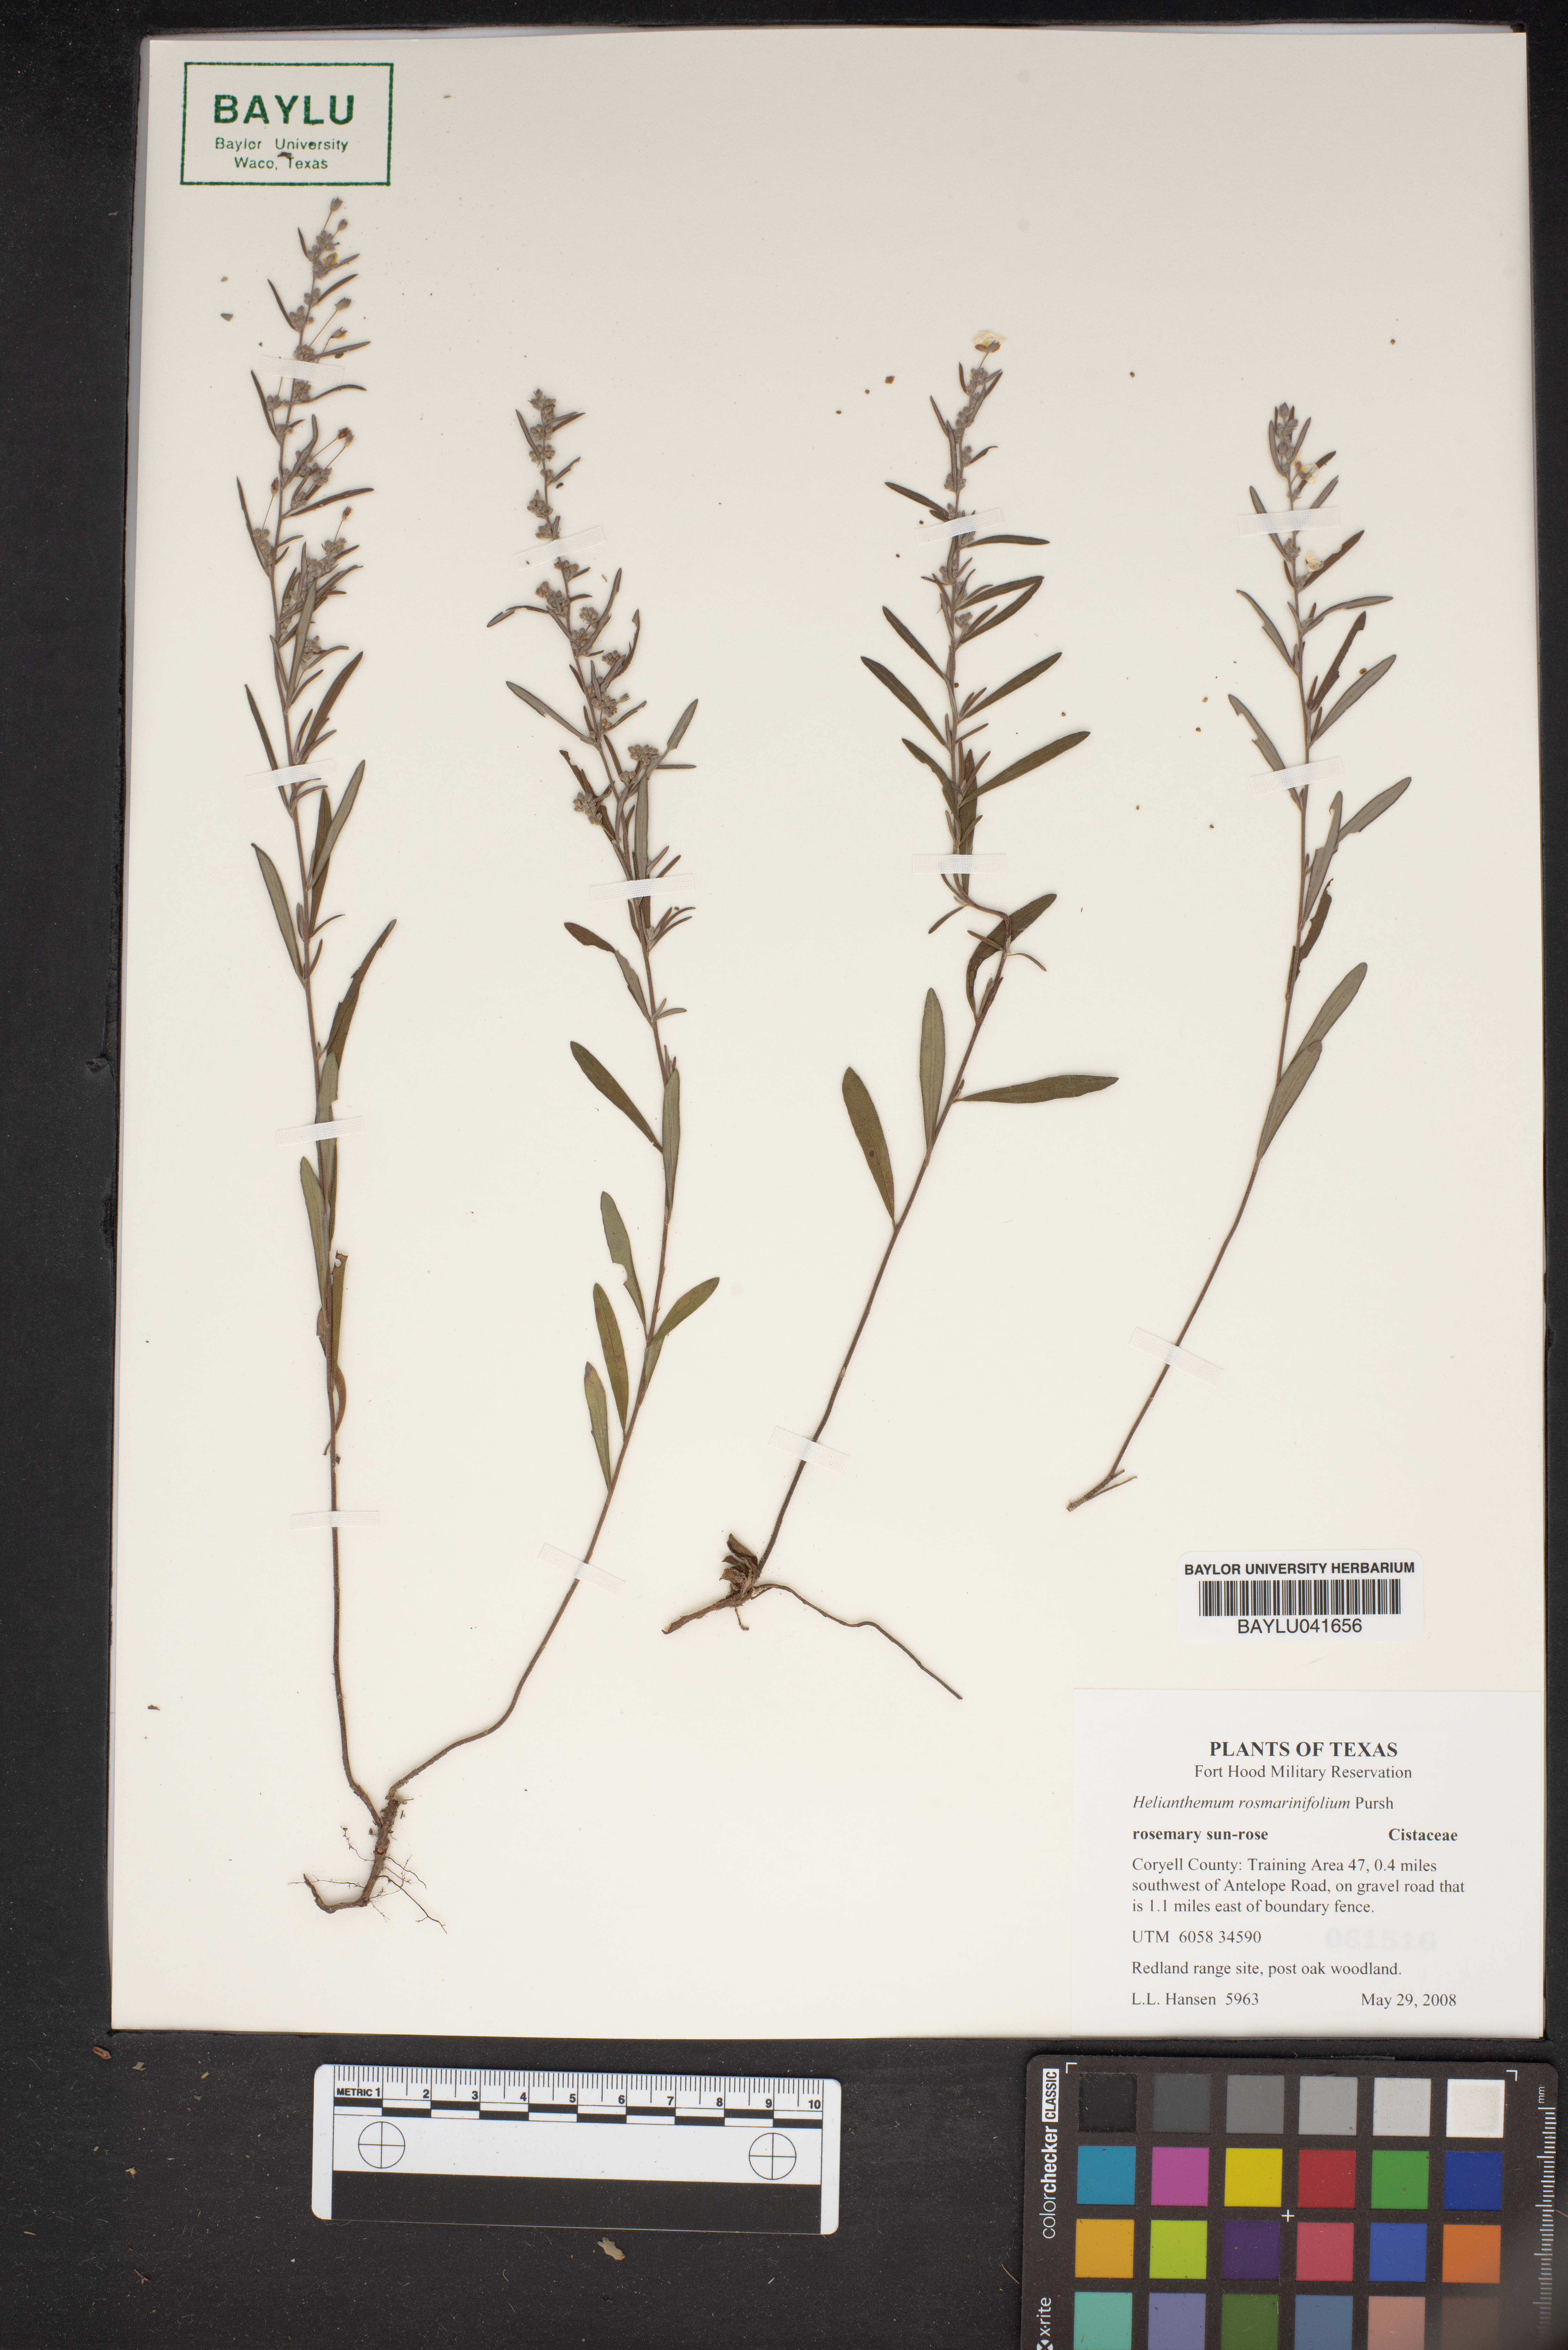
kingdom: Plantae
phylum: Tracheophyta
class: Magnoliopsida
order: Malvales
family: Cistaceae
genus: Crocanthemum
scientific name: Crocanthemum rosmarinifolium
